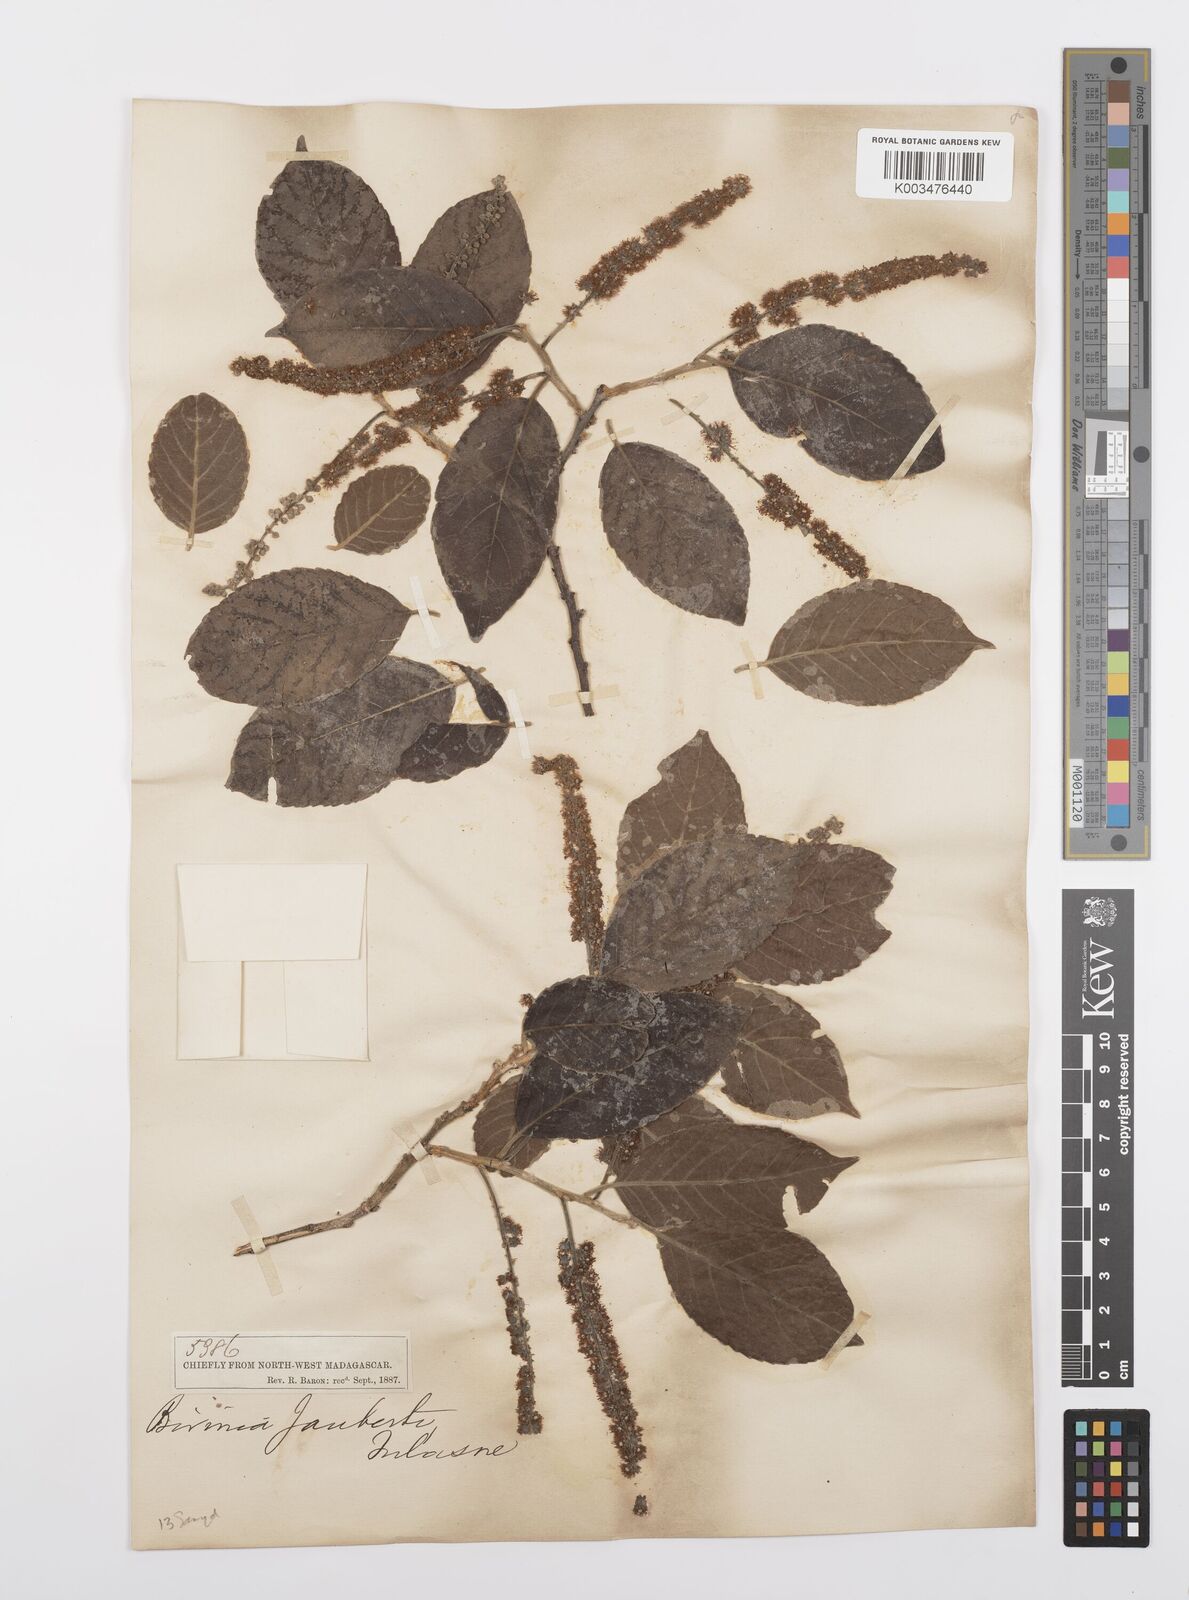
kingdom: Plantae
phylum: Tracheophyta
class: Magnoliopsida
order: Malpighiales
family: Salicaceae
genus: Bivinia
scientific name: Bivinia jalbertii
